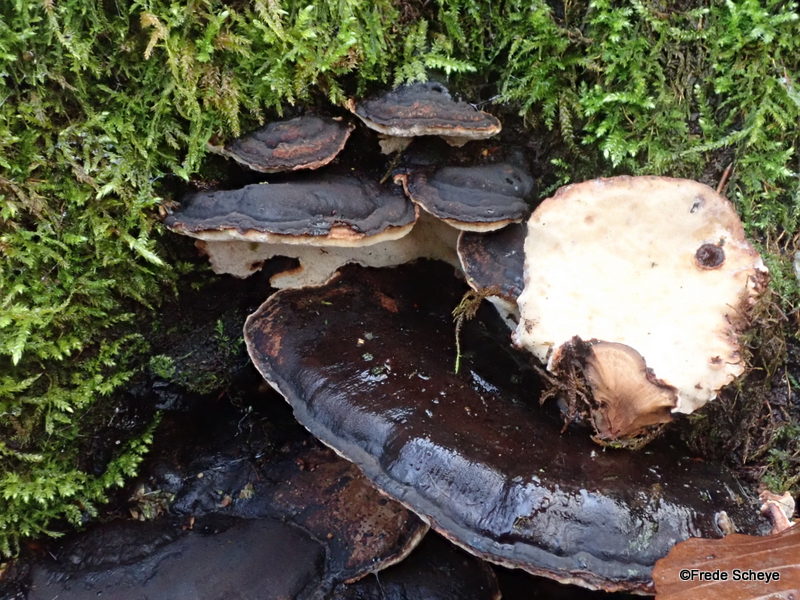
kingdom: Fungi
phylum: Basidiomycota
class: Agaricomycetes
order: Polyporales
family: Ischnodermataceae
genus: Ischnoderma
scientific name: Ischnoderma resinosum
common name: løv-tjæreporesvamp
